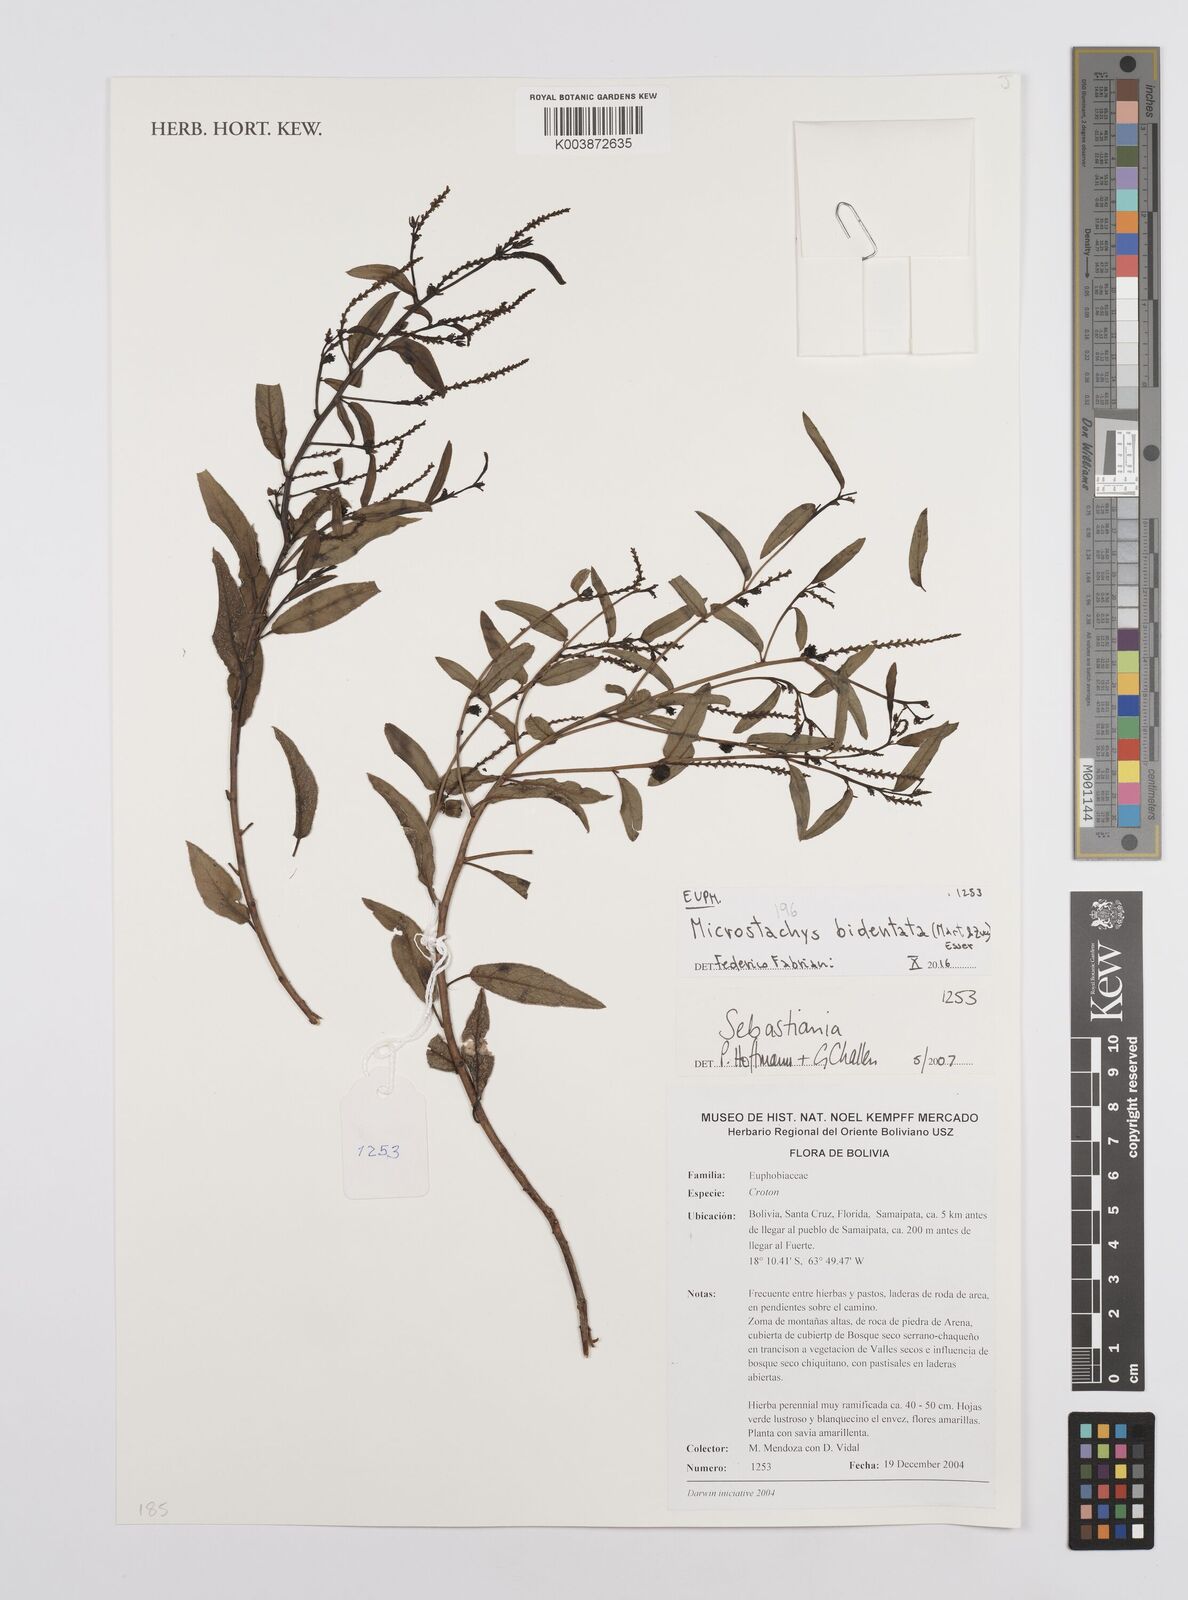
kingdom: Plantae
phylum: Tracheophyta
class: Magnoliopsida
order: Malpighiales
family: Euphorbiaceae
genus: Microstachys
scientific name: Microstachys bidentata
